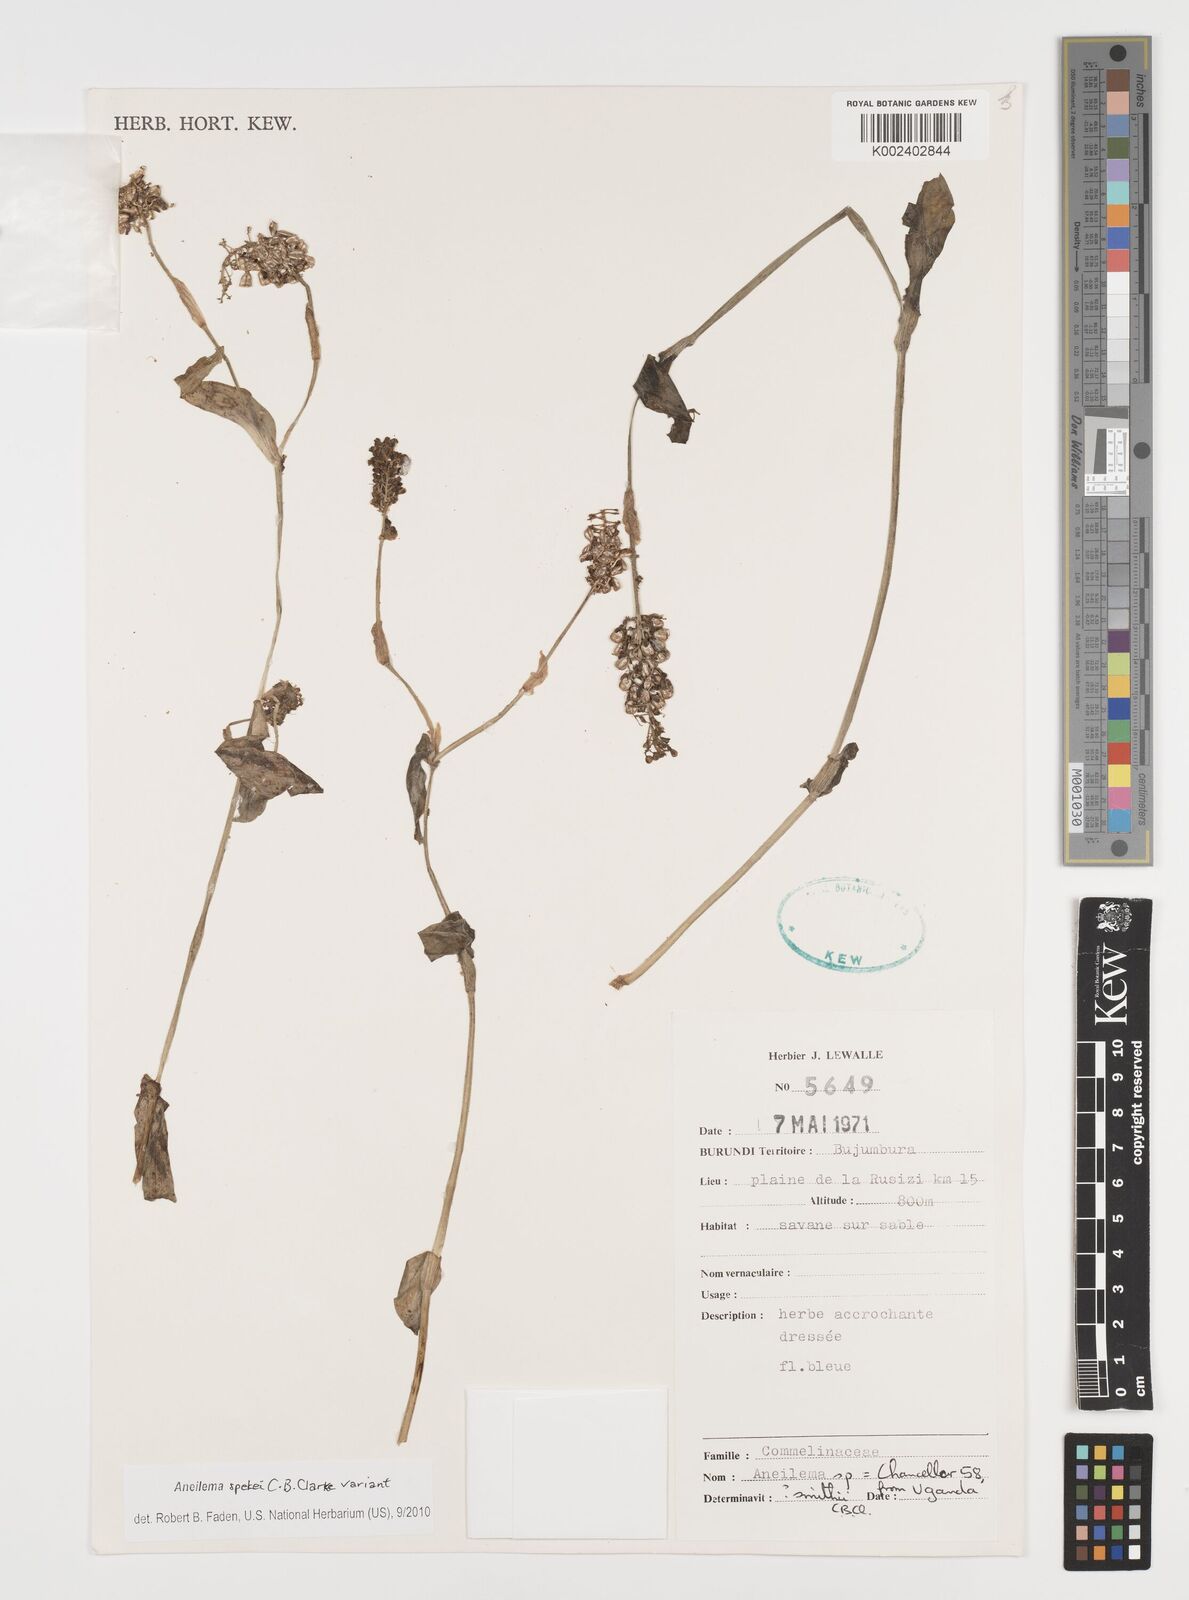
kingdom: Plantae
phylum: Tracheophyta
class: Liliopsida
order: Commelinales
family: Commelinaceae
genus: Aneilema
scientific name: Aneilema spekei
